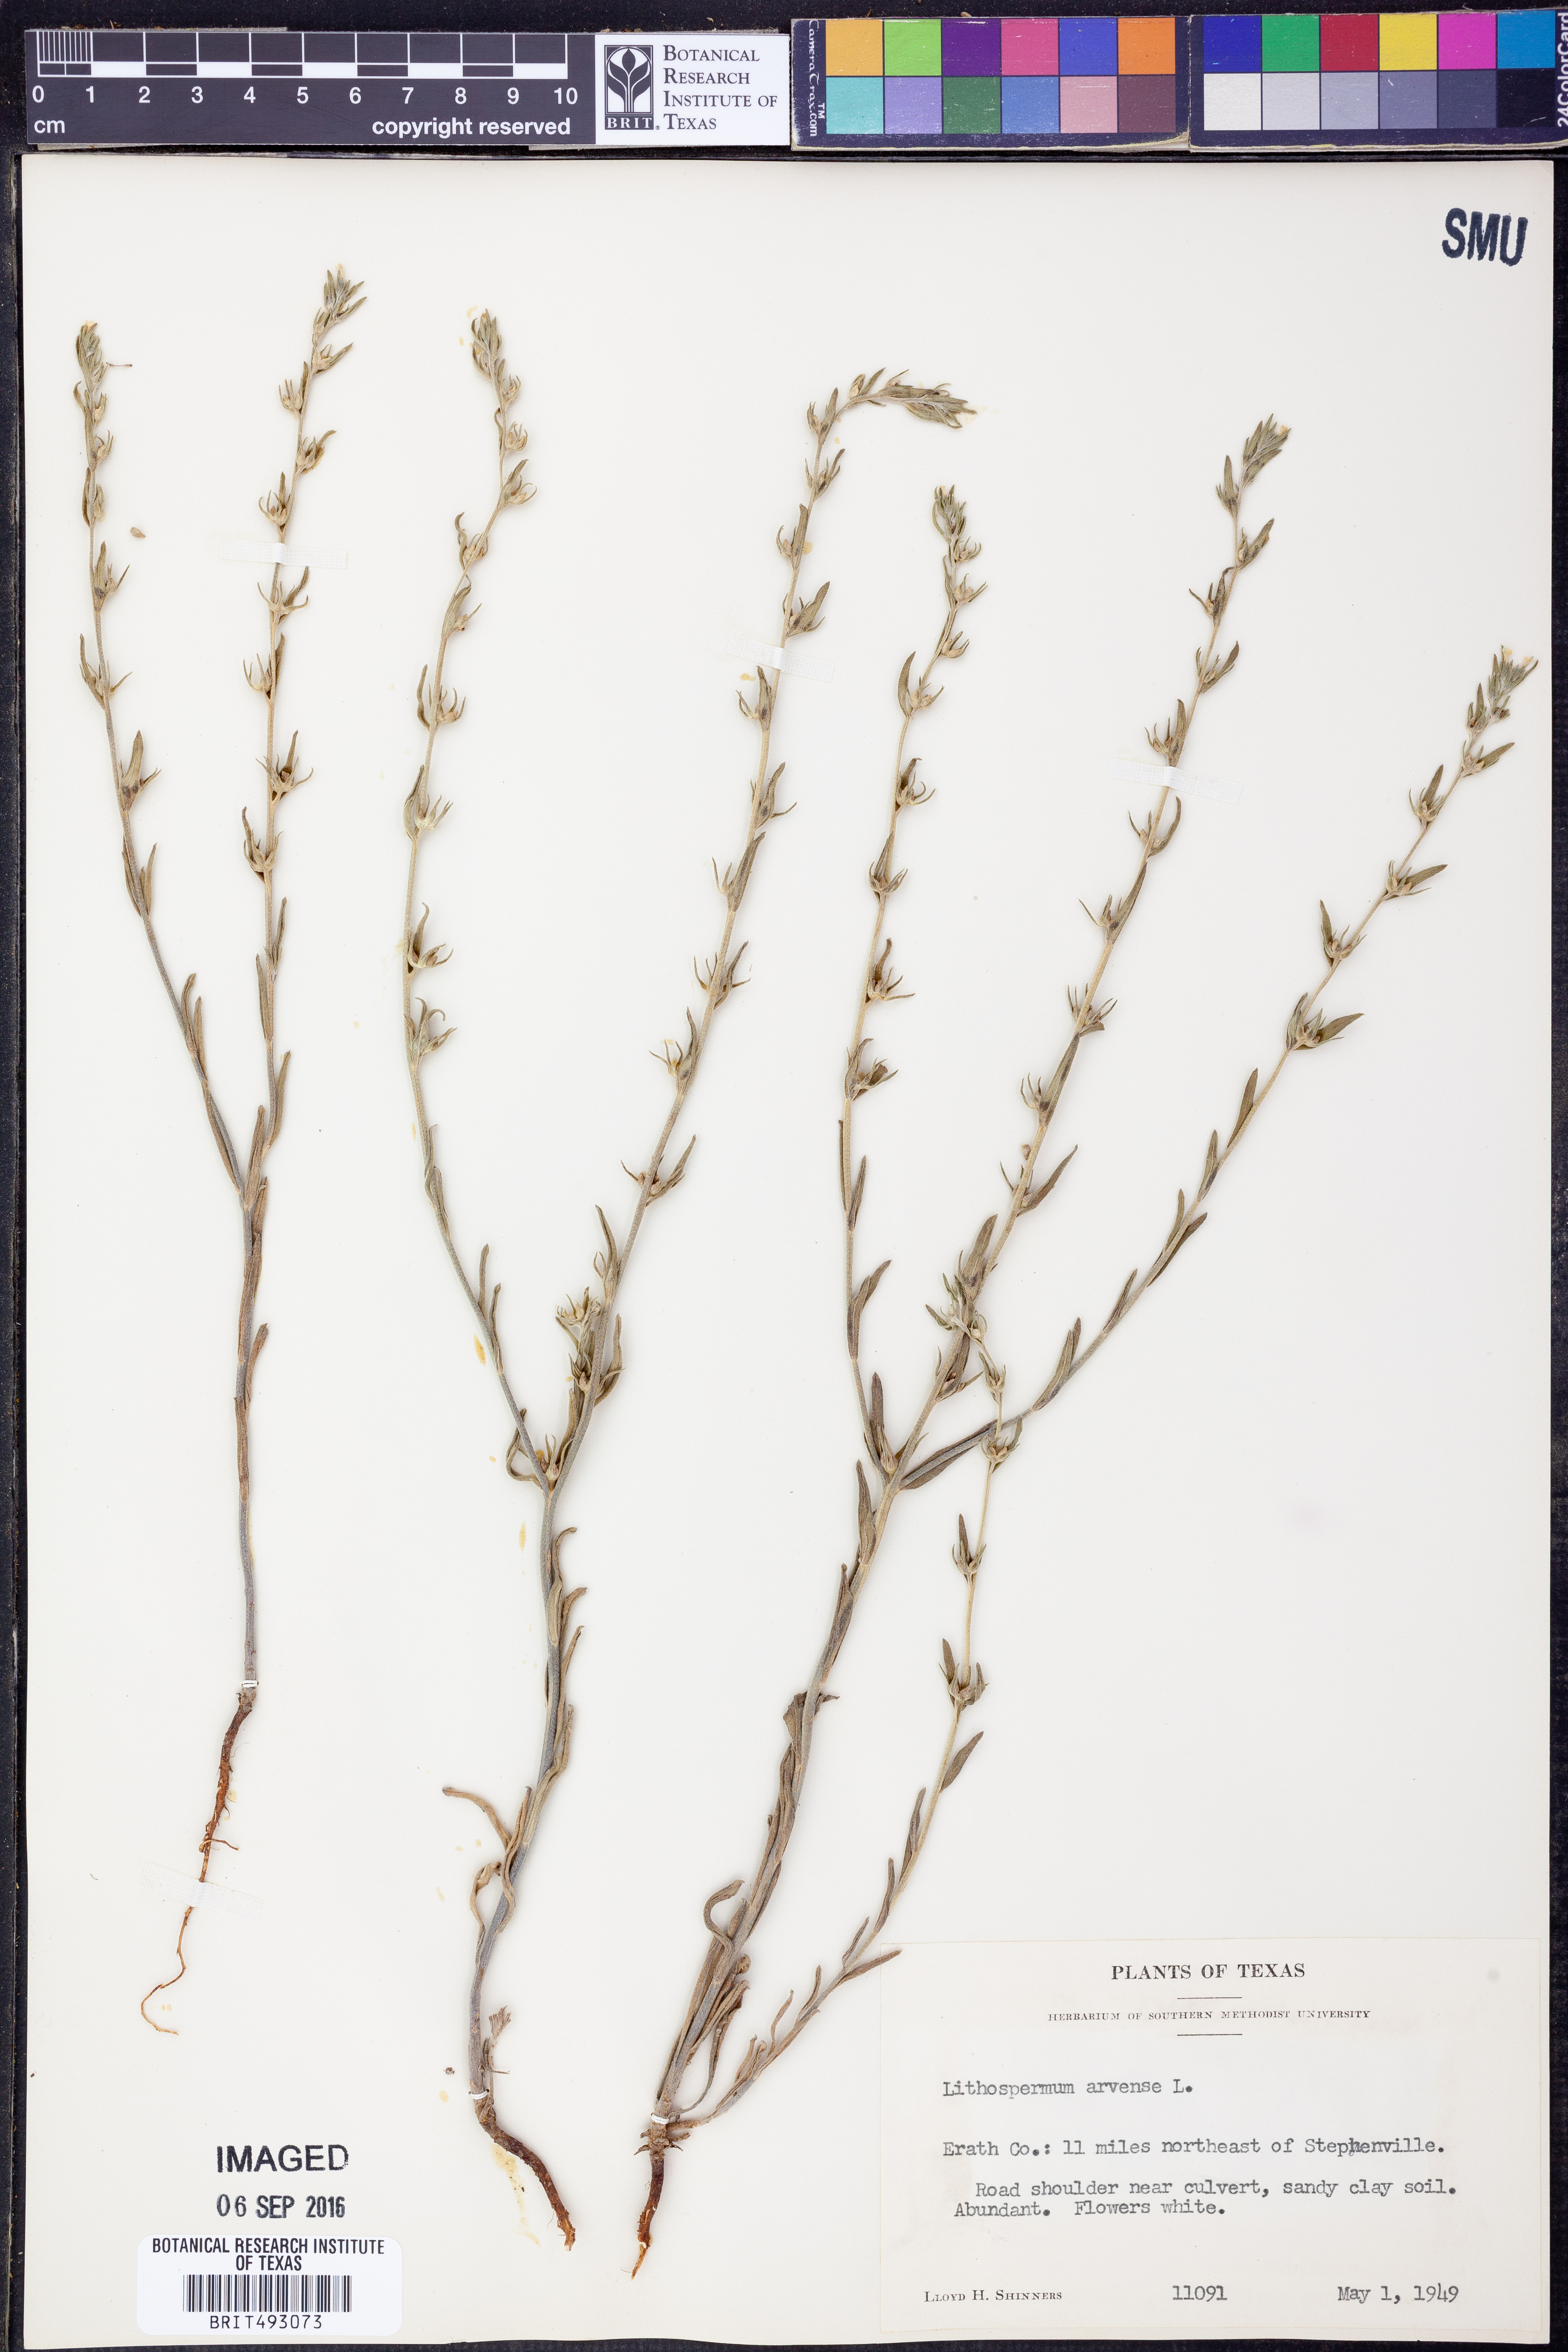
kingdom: Plantae
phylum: Tracheophyta
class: Magnoliopsida
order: Boraginales
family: Boraginaceae
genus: Lithospermum
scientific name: Lithospermum erythrorhizon
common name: Purple gromwell
